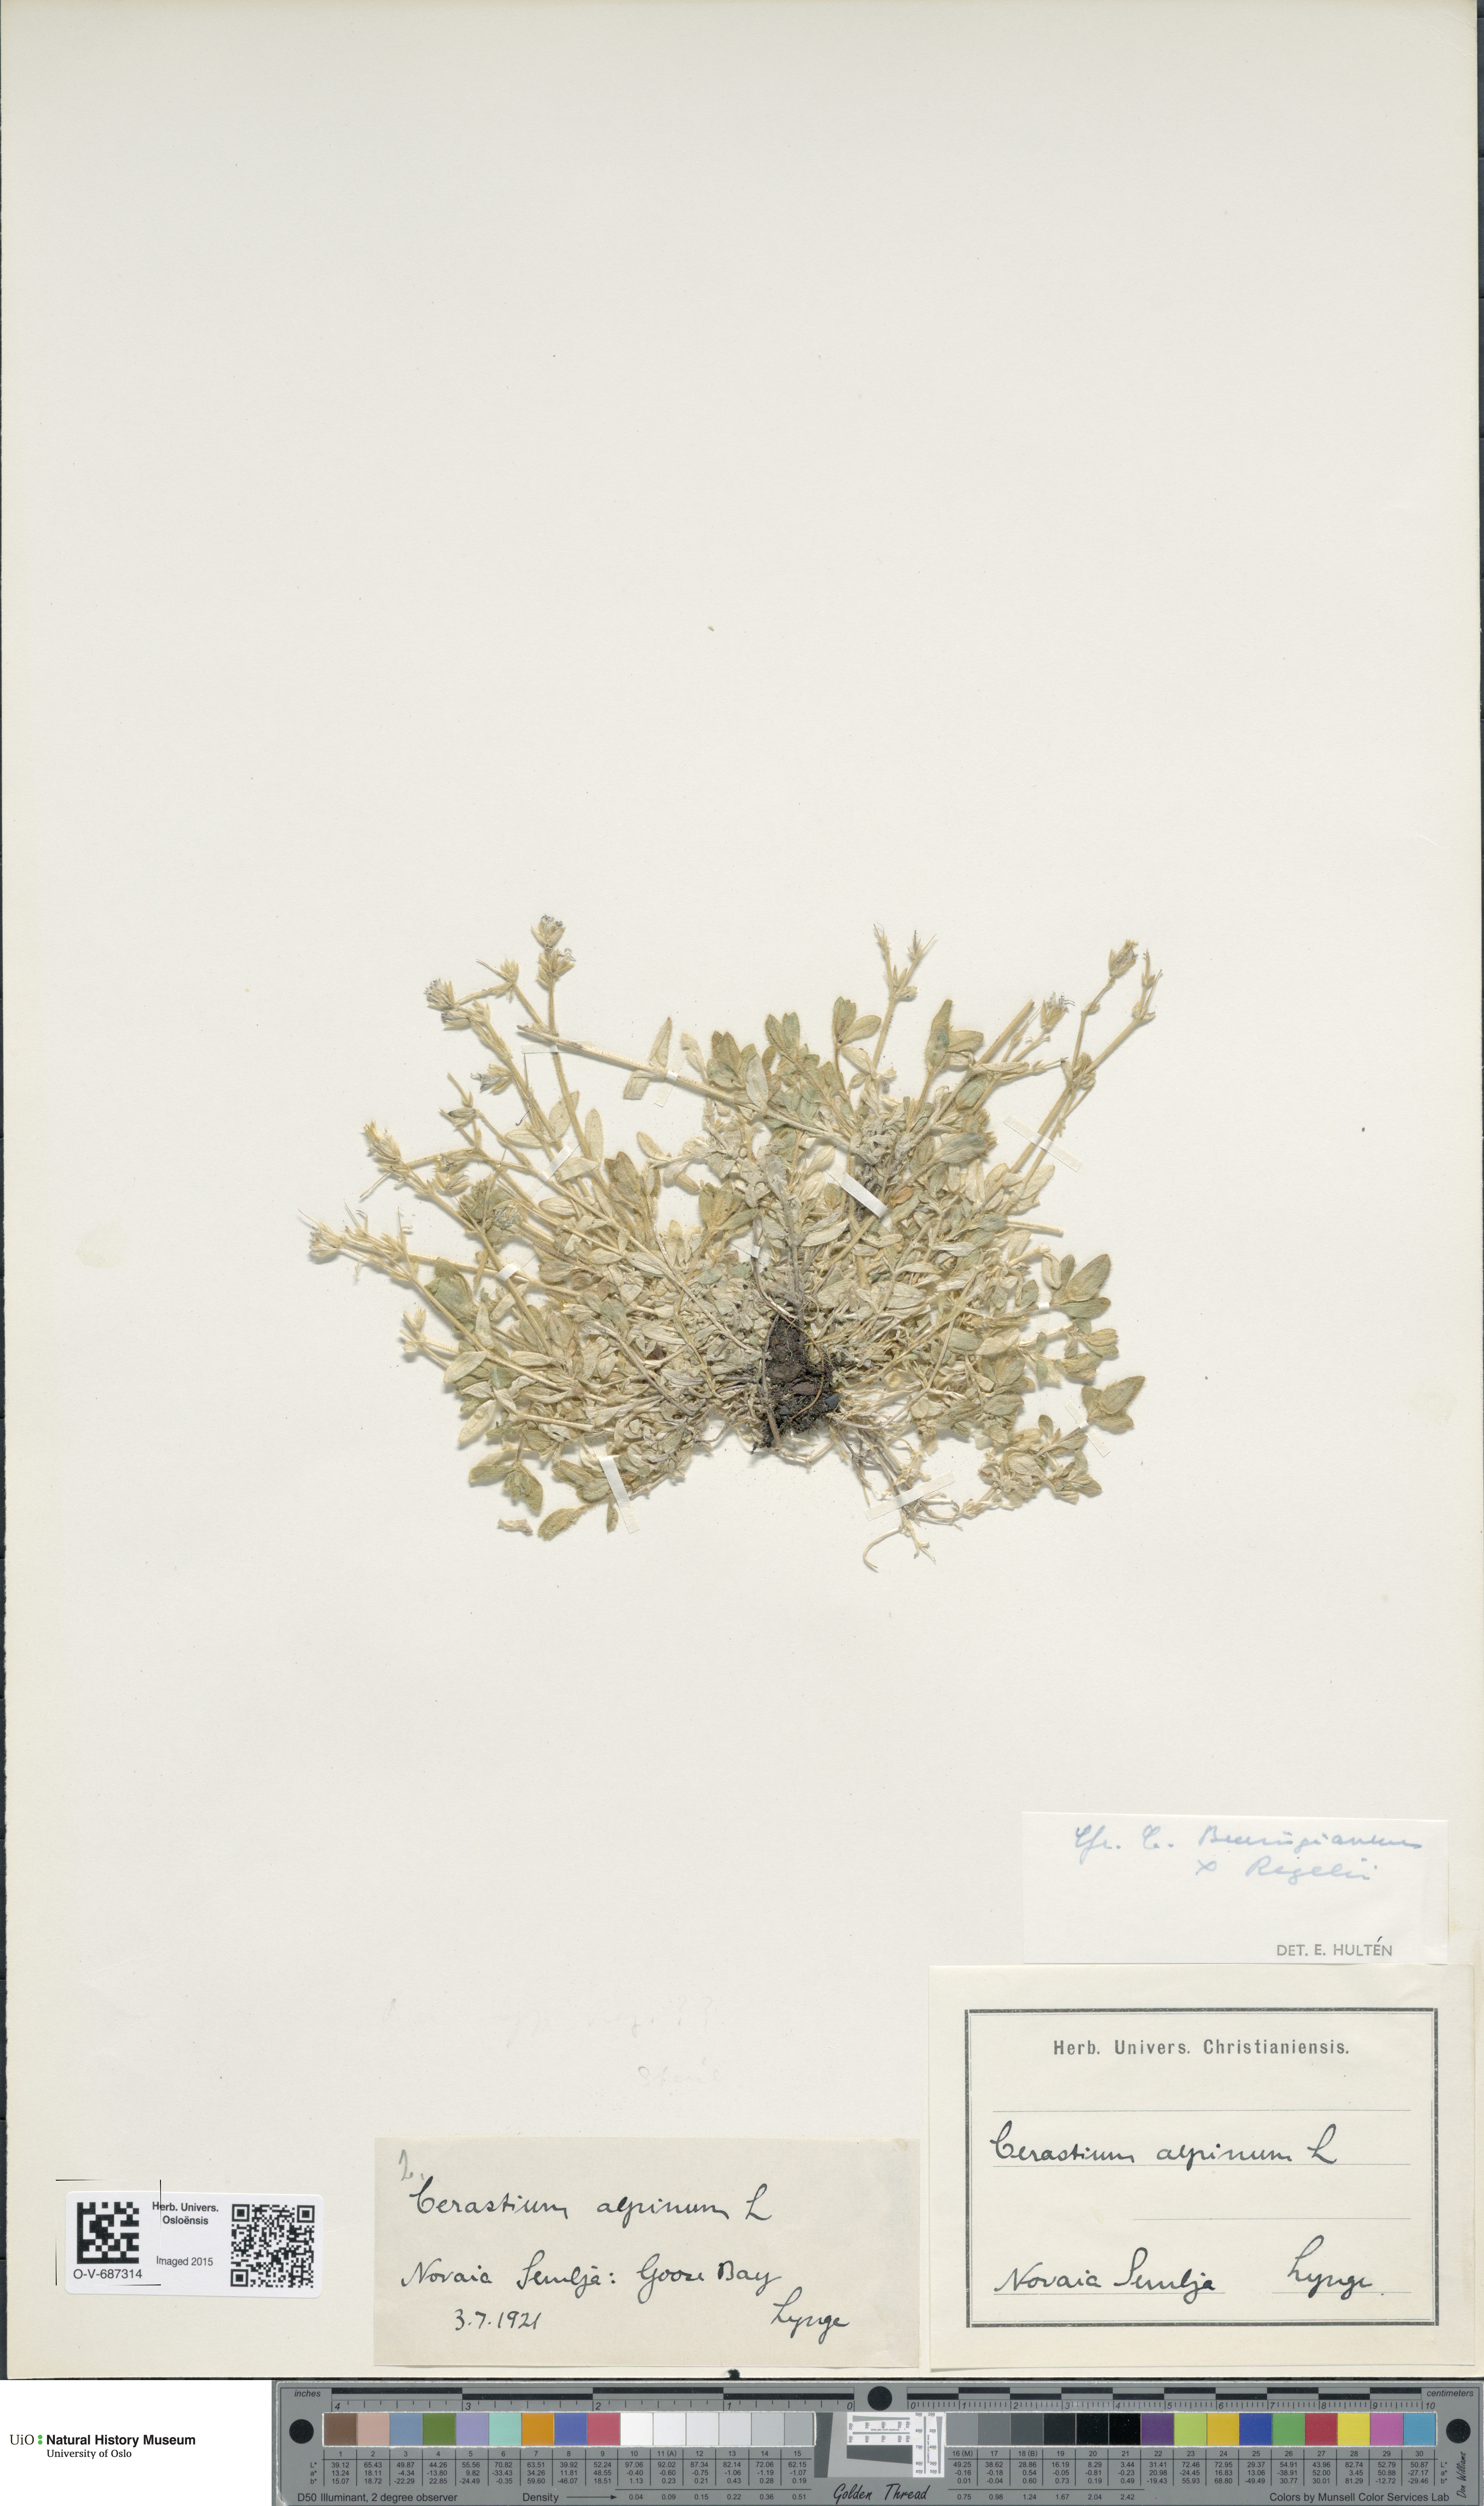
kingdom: Plantae
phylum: Tracheophyta
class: Magnoliopsida
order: Caryophyllales
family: Caryophyllaceae
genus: Cerastium
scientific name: Cerastium
